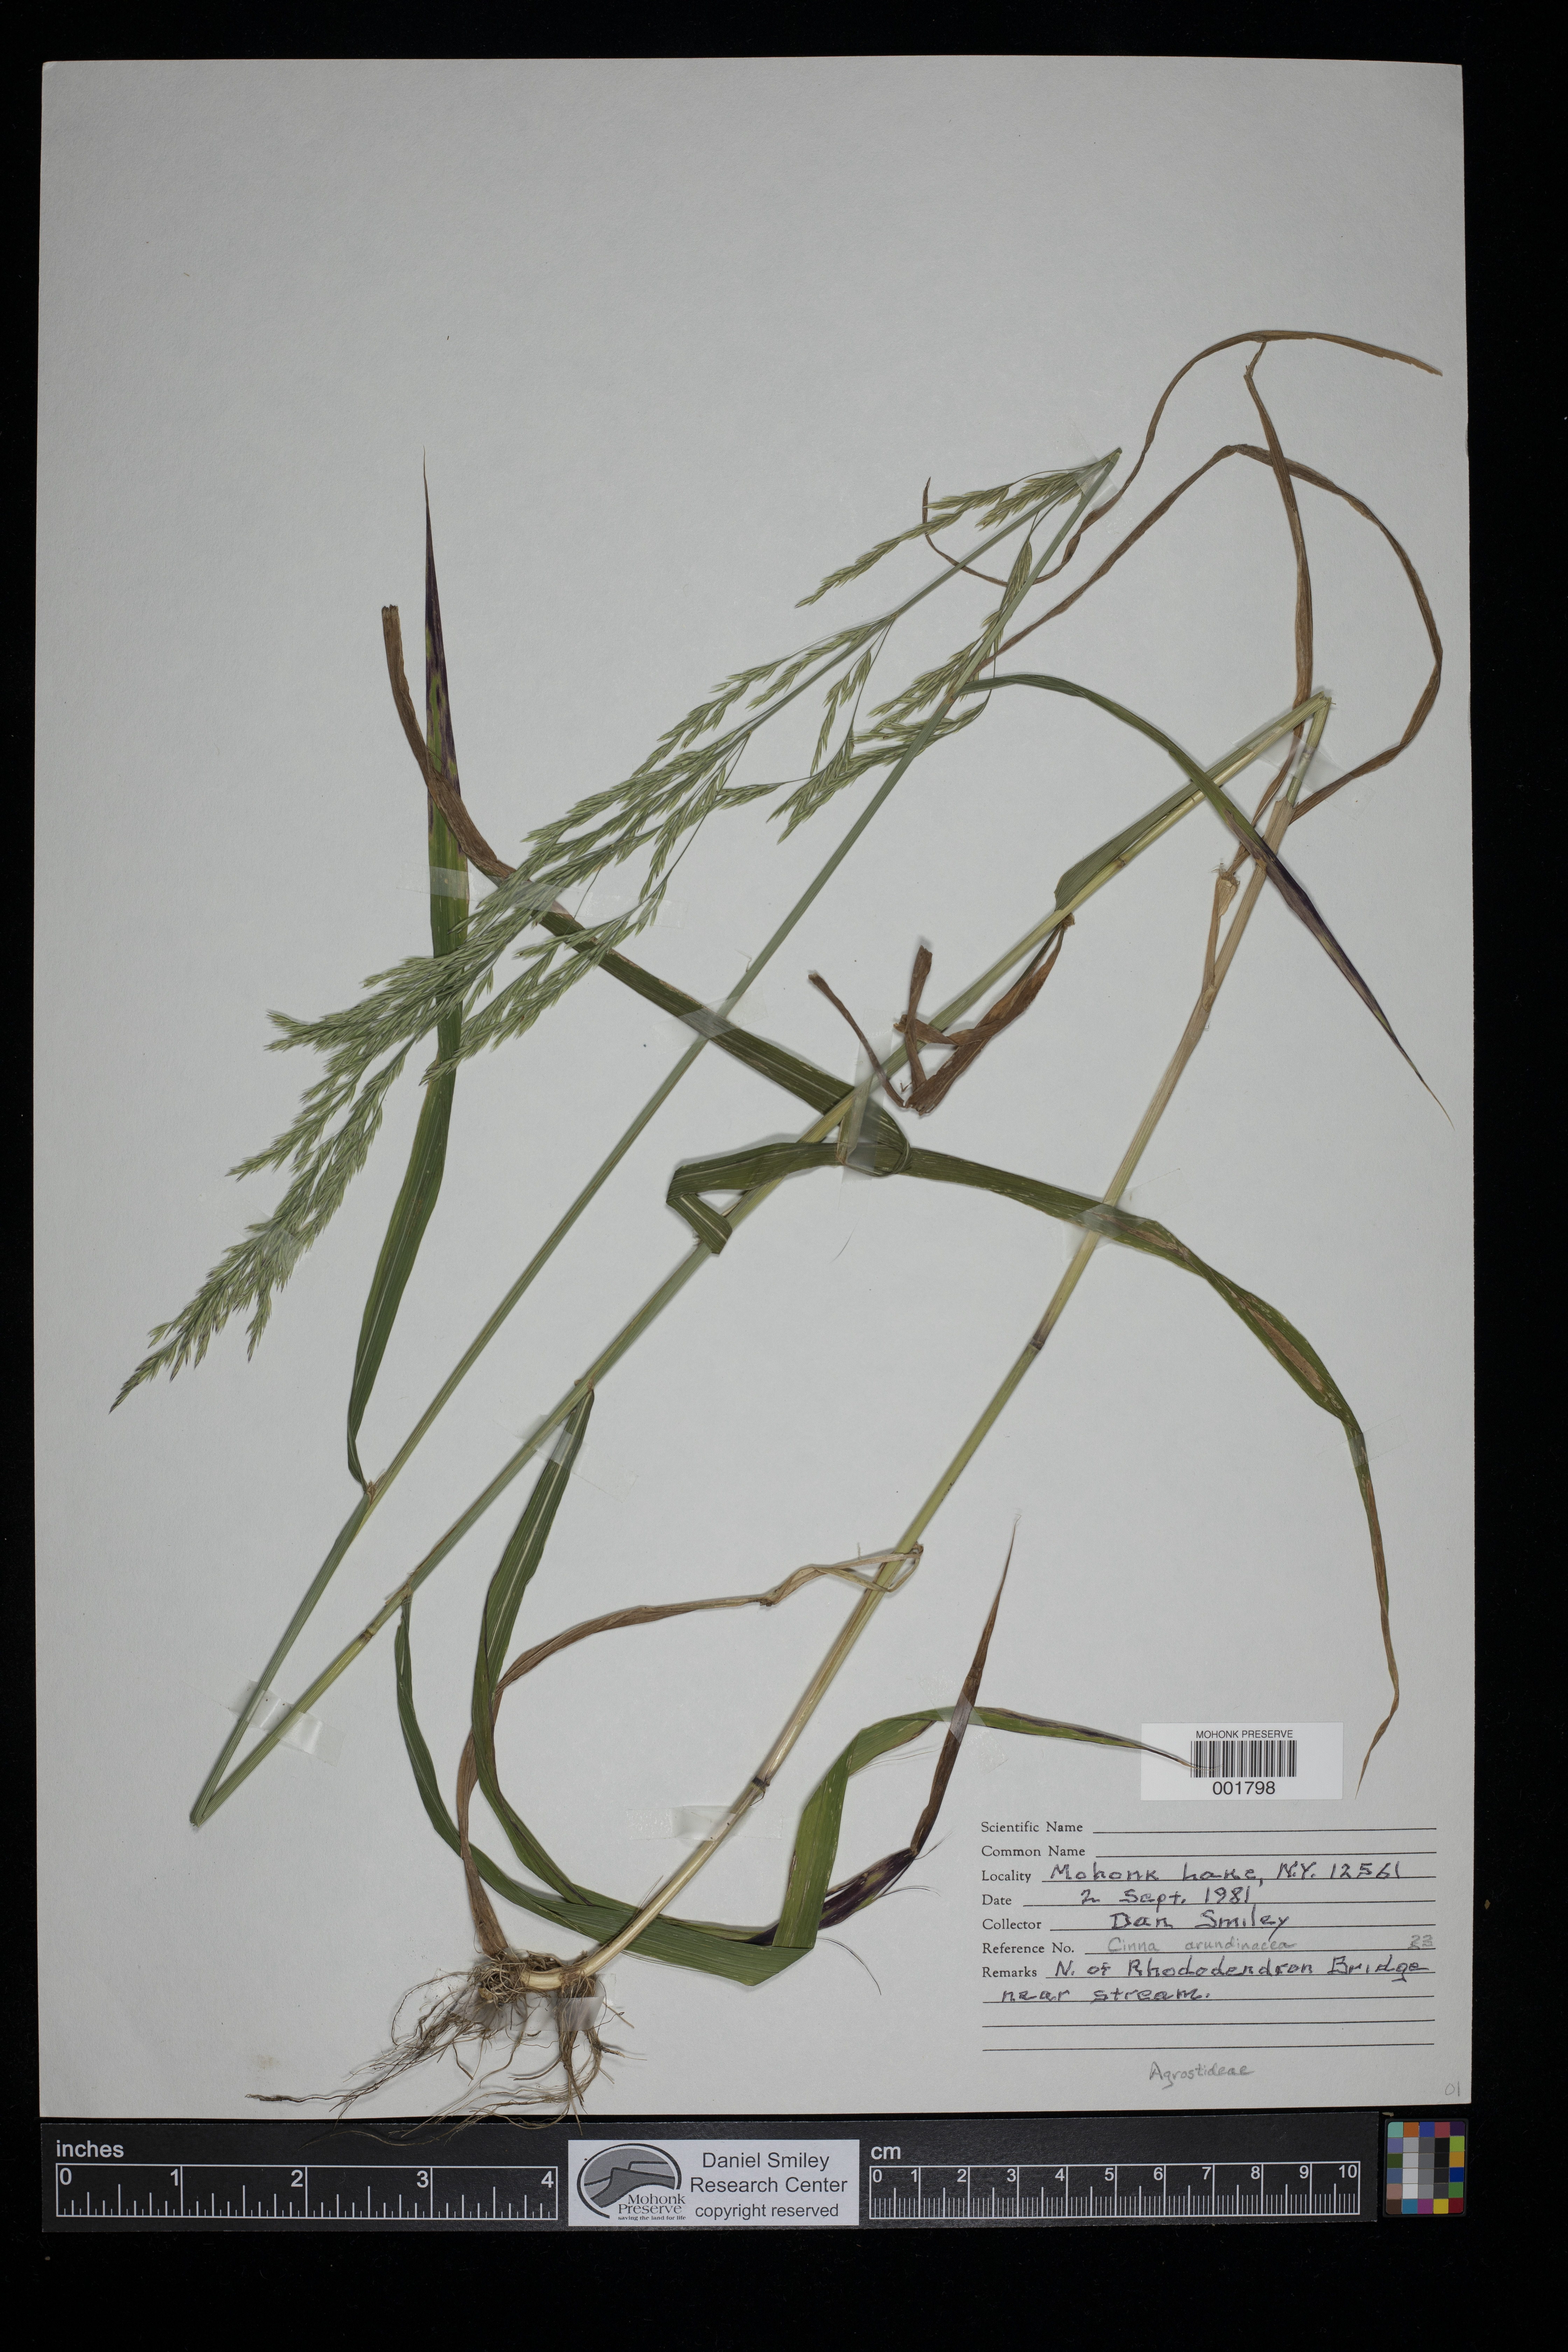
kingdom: Plantae
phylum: Tracheophyta
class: Liliopsida
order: Poales
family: Poaceae
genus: Cinna
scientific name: Cinna arundinacea
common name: Stout woodreed
